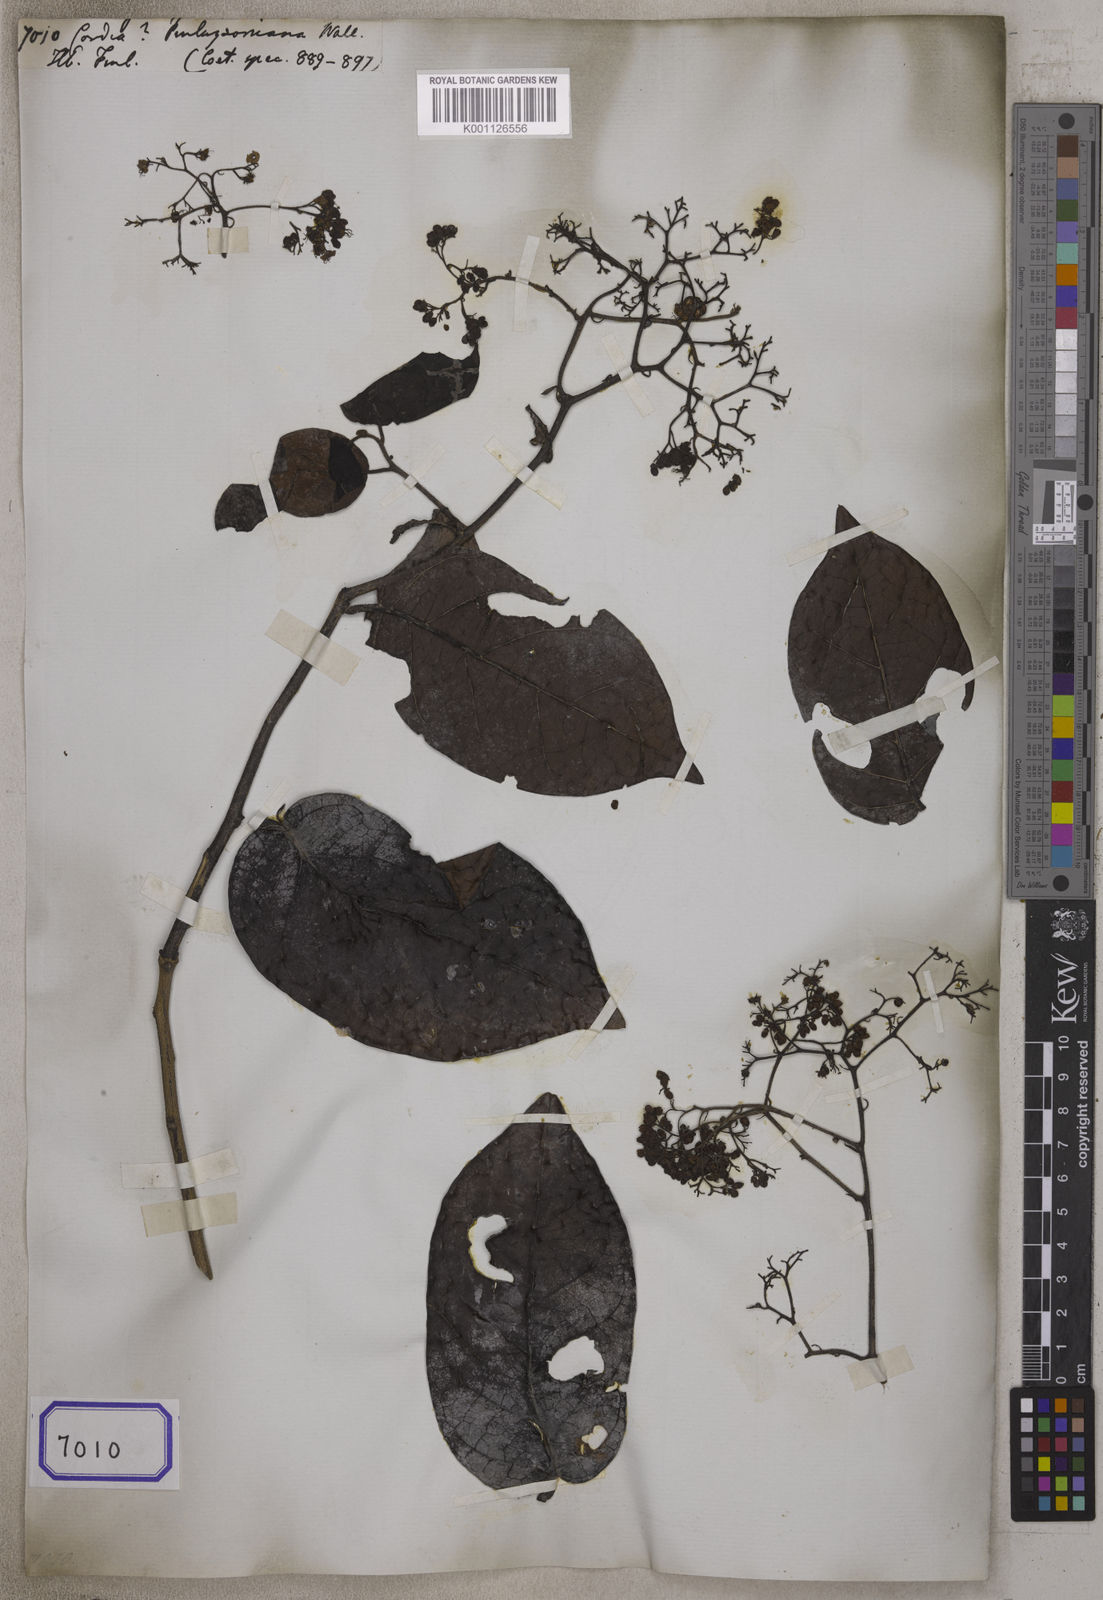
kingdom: Plantae
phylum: Tracheophyta
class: Magnoliopsida
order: Boraginales
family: Cordiaceae
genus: Cordia
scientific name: Cordia finlaysoniana
